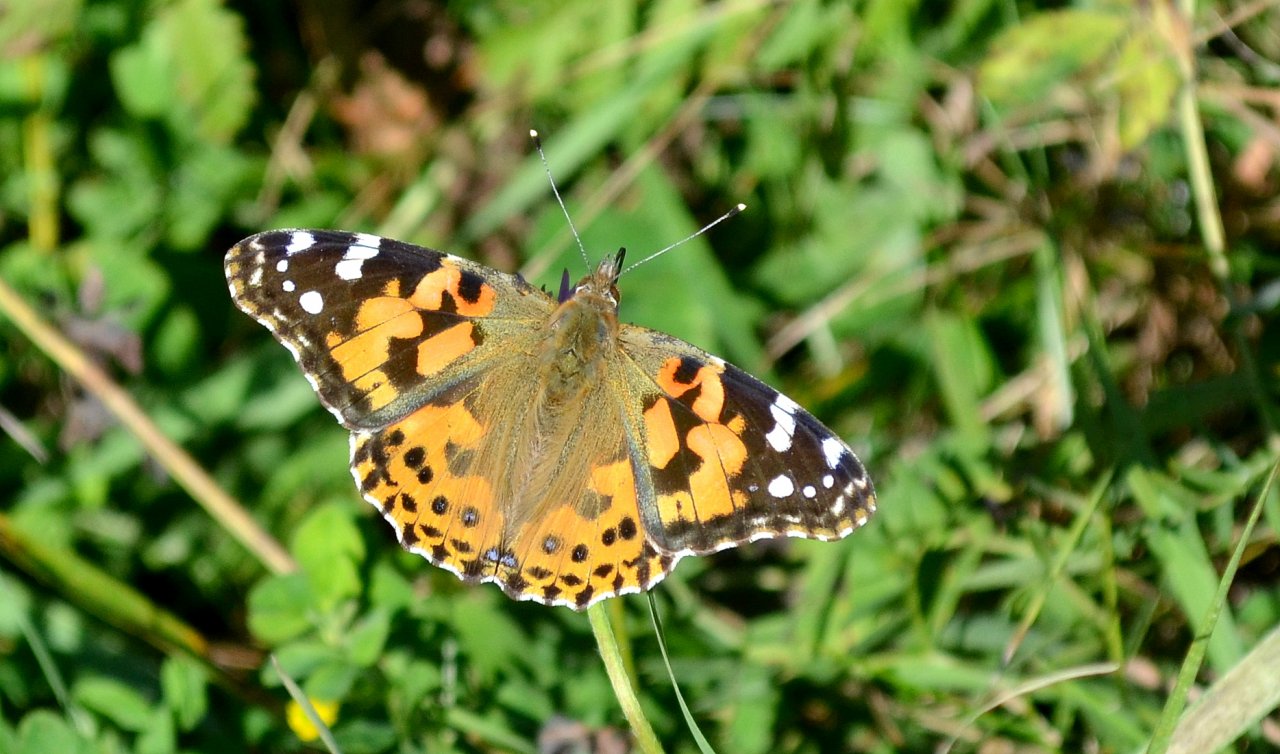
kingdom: Animalia
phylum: Arthropoda
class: Insecta
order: Lepidoptera
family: Nymphalidae
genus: Vanessa
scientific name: Vanessa cardui
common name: Painted Lady
